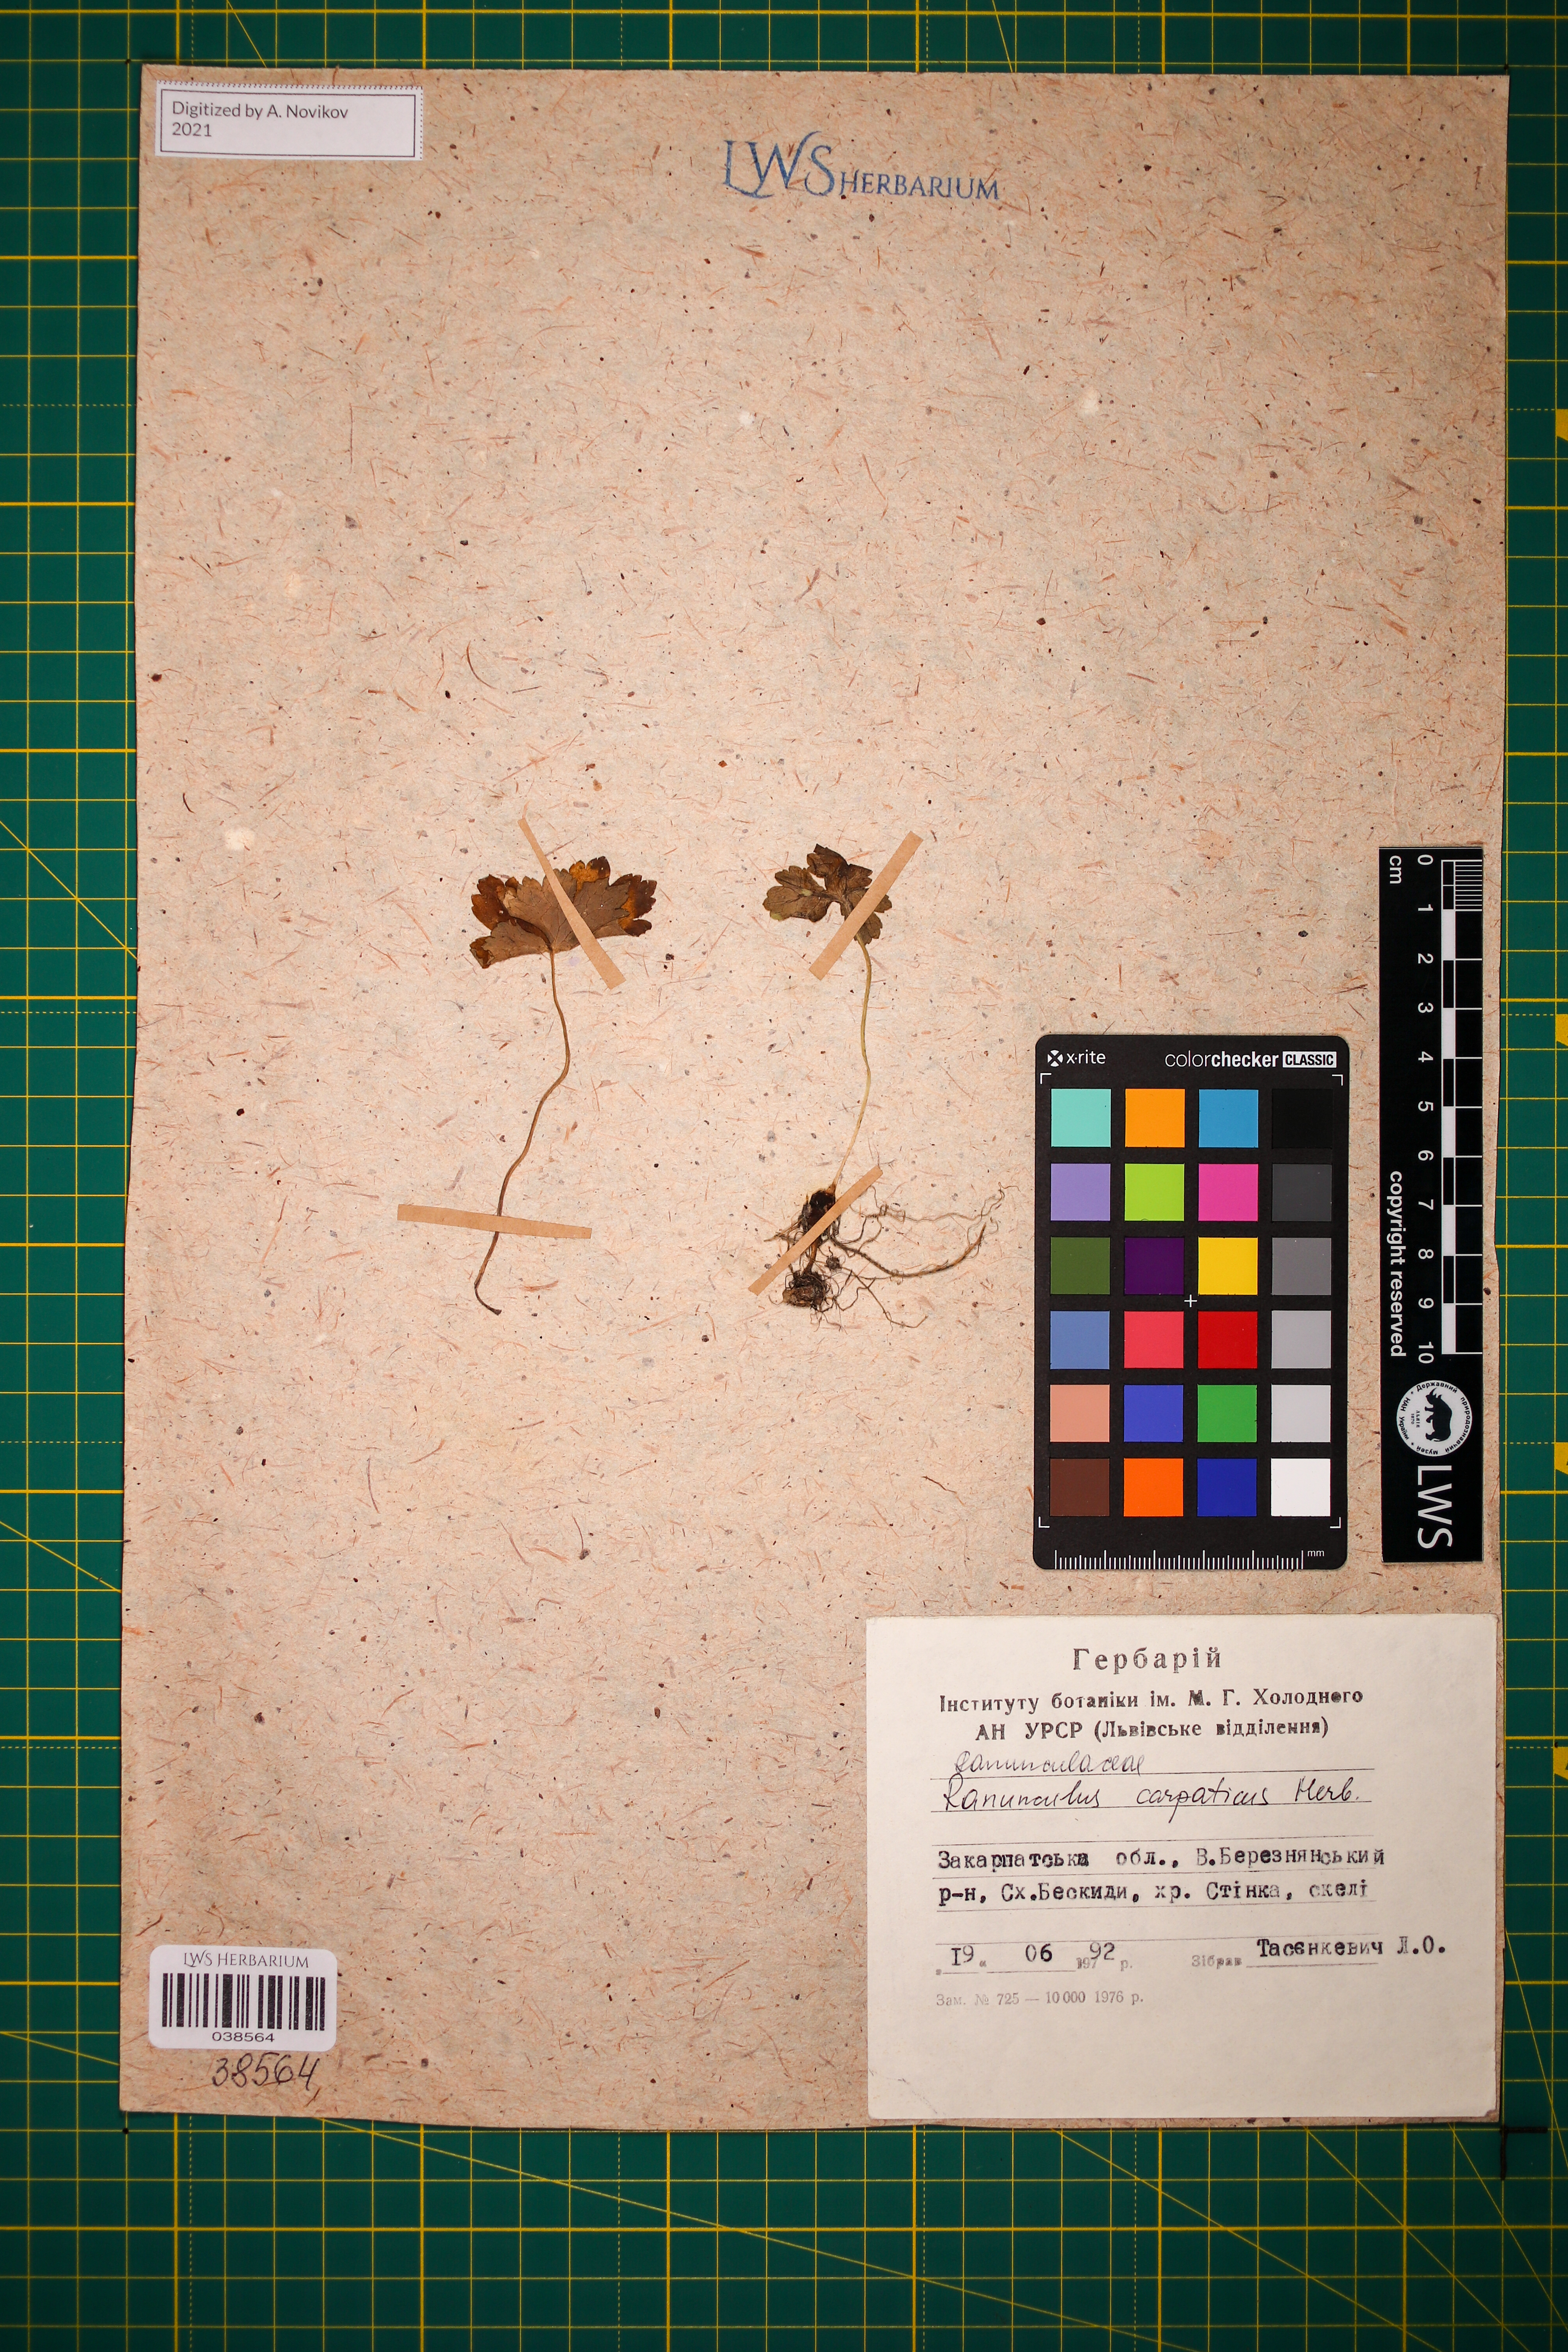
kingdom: Plantae
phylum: Tracheophyta
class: Magnoliopsida
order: Ranunculales
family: Ranunculaceae
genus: Ranunculus
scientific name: Ranunculus carpaticus
